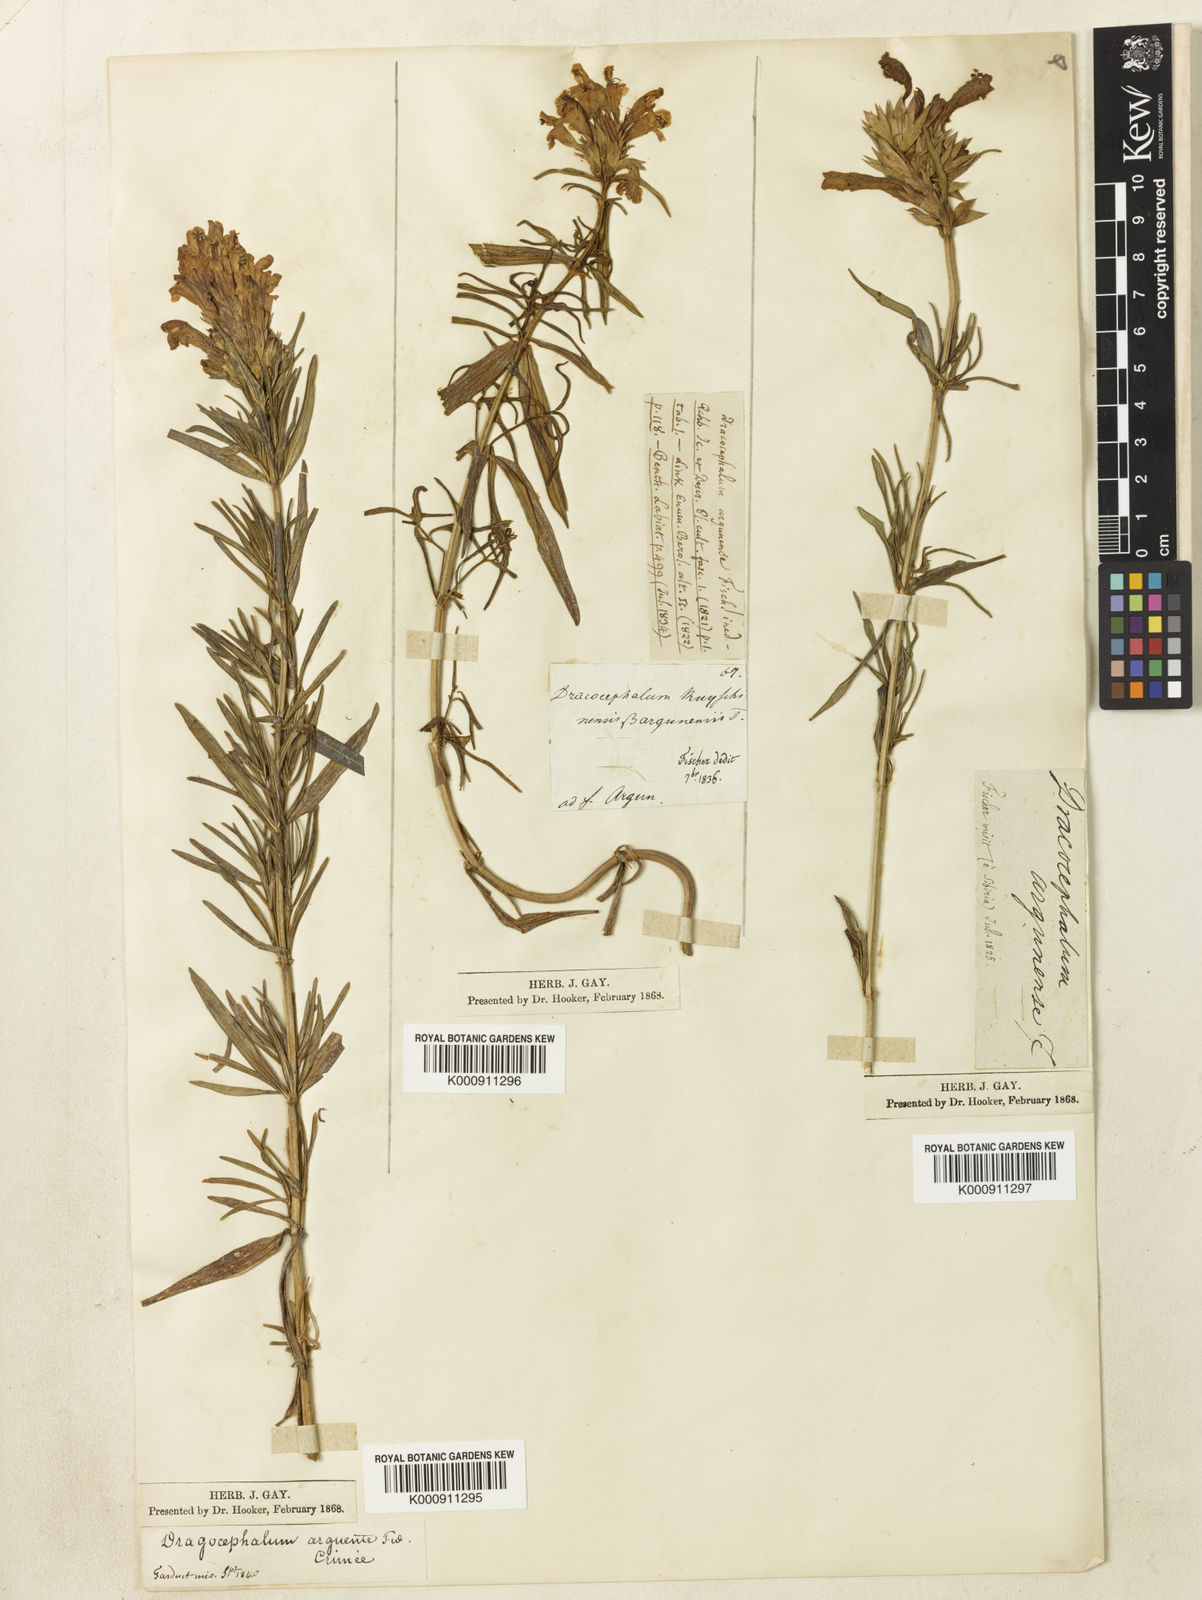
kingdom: Plantae
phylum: Tracheophyta
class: Magnoliopsida
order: Lamiales
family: Lamiaceae
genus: Dracocephalum
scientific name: Dracocephalum argunense
